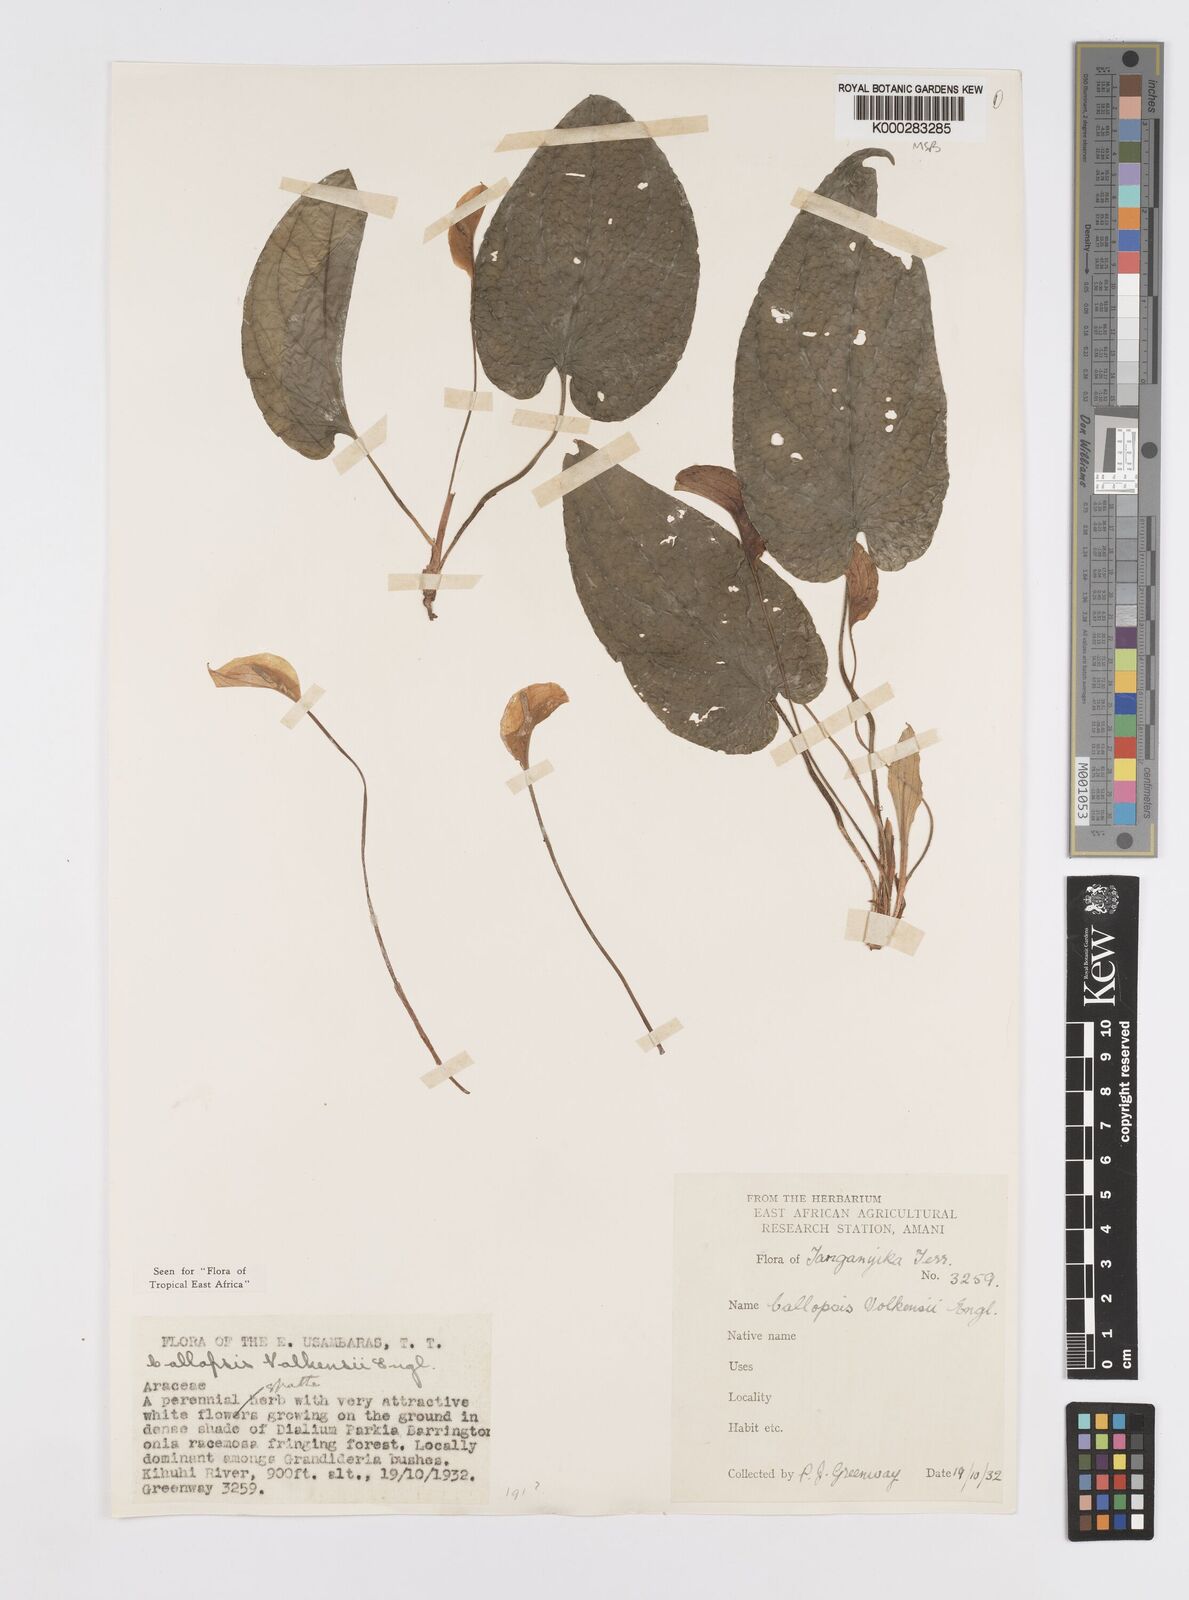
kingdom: Plantae
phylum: Tracheophyta
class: Liliopsida
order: Alismatales
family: Araceae
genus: Callopsis
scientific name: Callopsis volkensii
